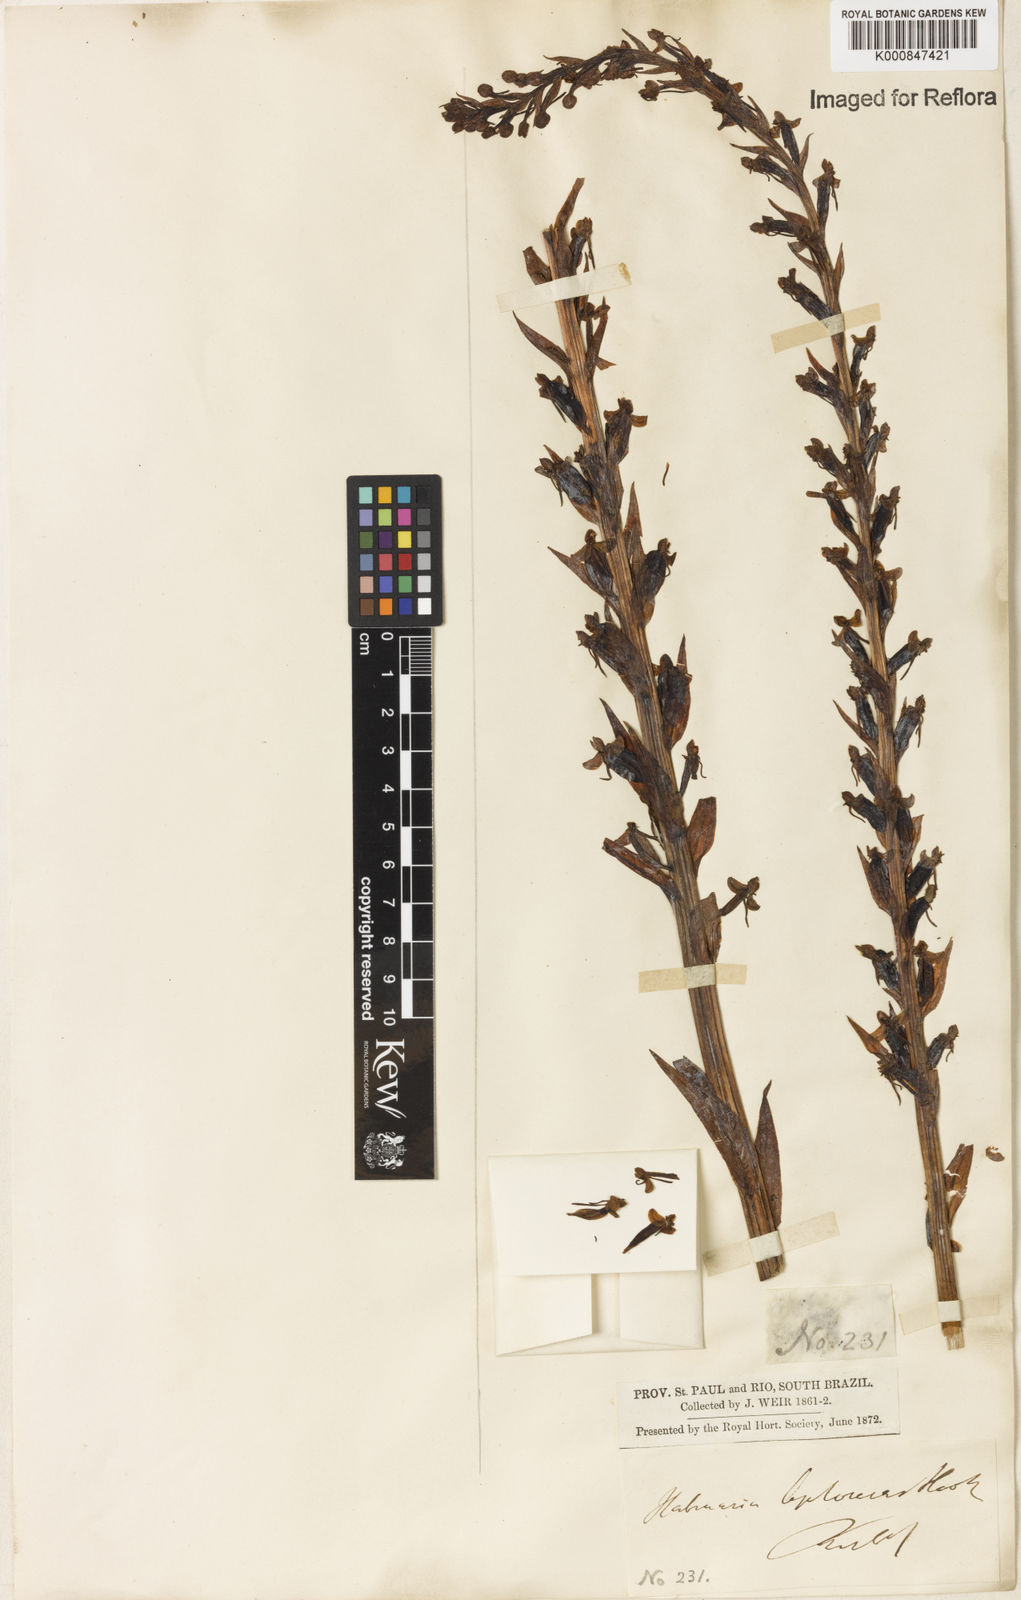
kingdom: Plantae
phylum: Tracheophyta
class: Liliopsida
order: Asparagales
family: Orchidaceae
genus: Habenaria
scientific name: Habenaria leptoceras
